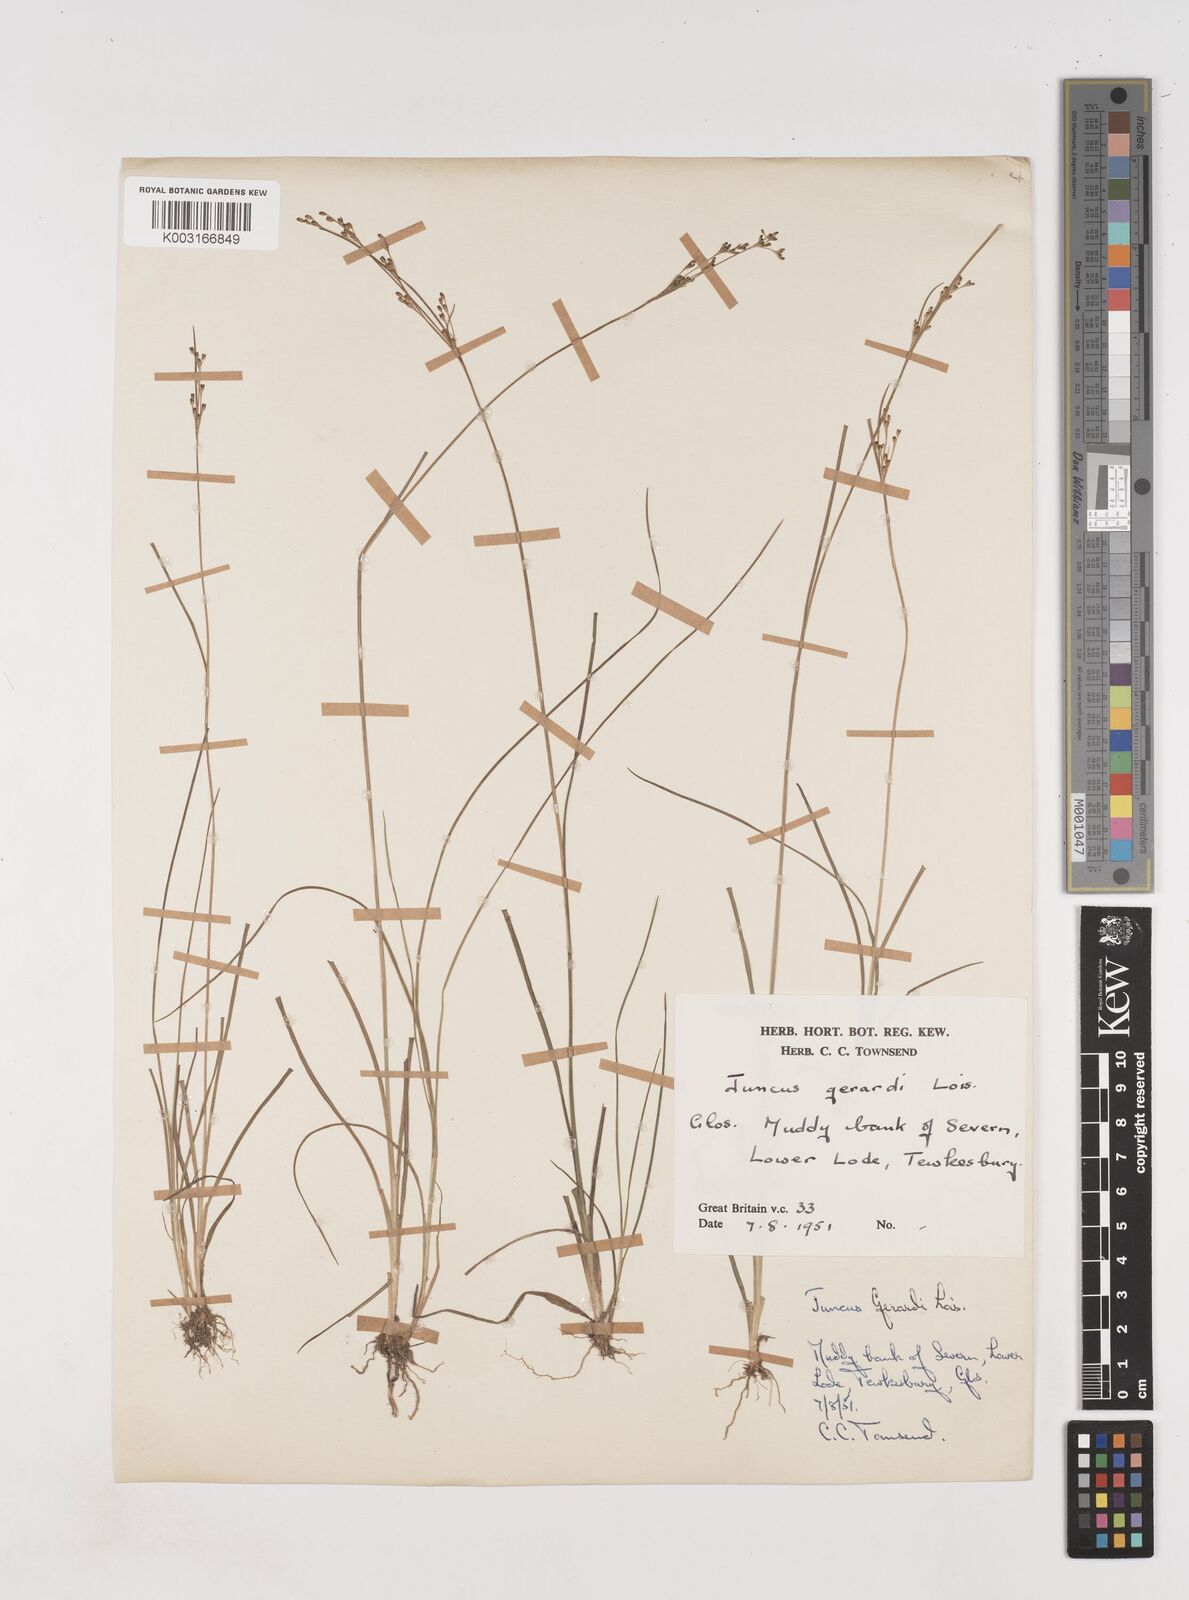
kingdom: Plantae
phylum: Tracheophyta
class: Liliopsida
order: Poales
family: Juncaceae
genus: Juncus
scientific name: Juncus gerardi
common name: Saltmarsh rush
